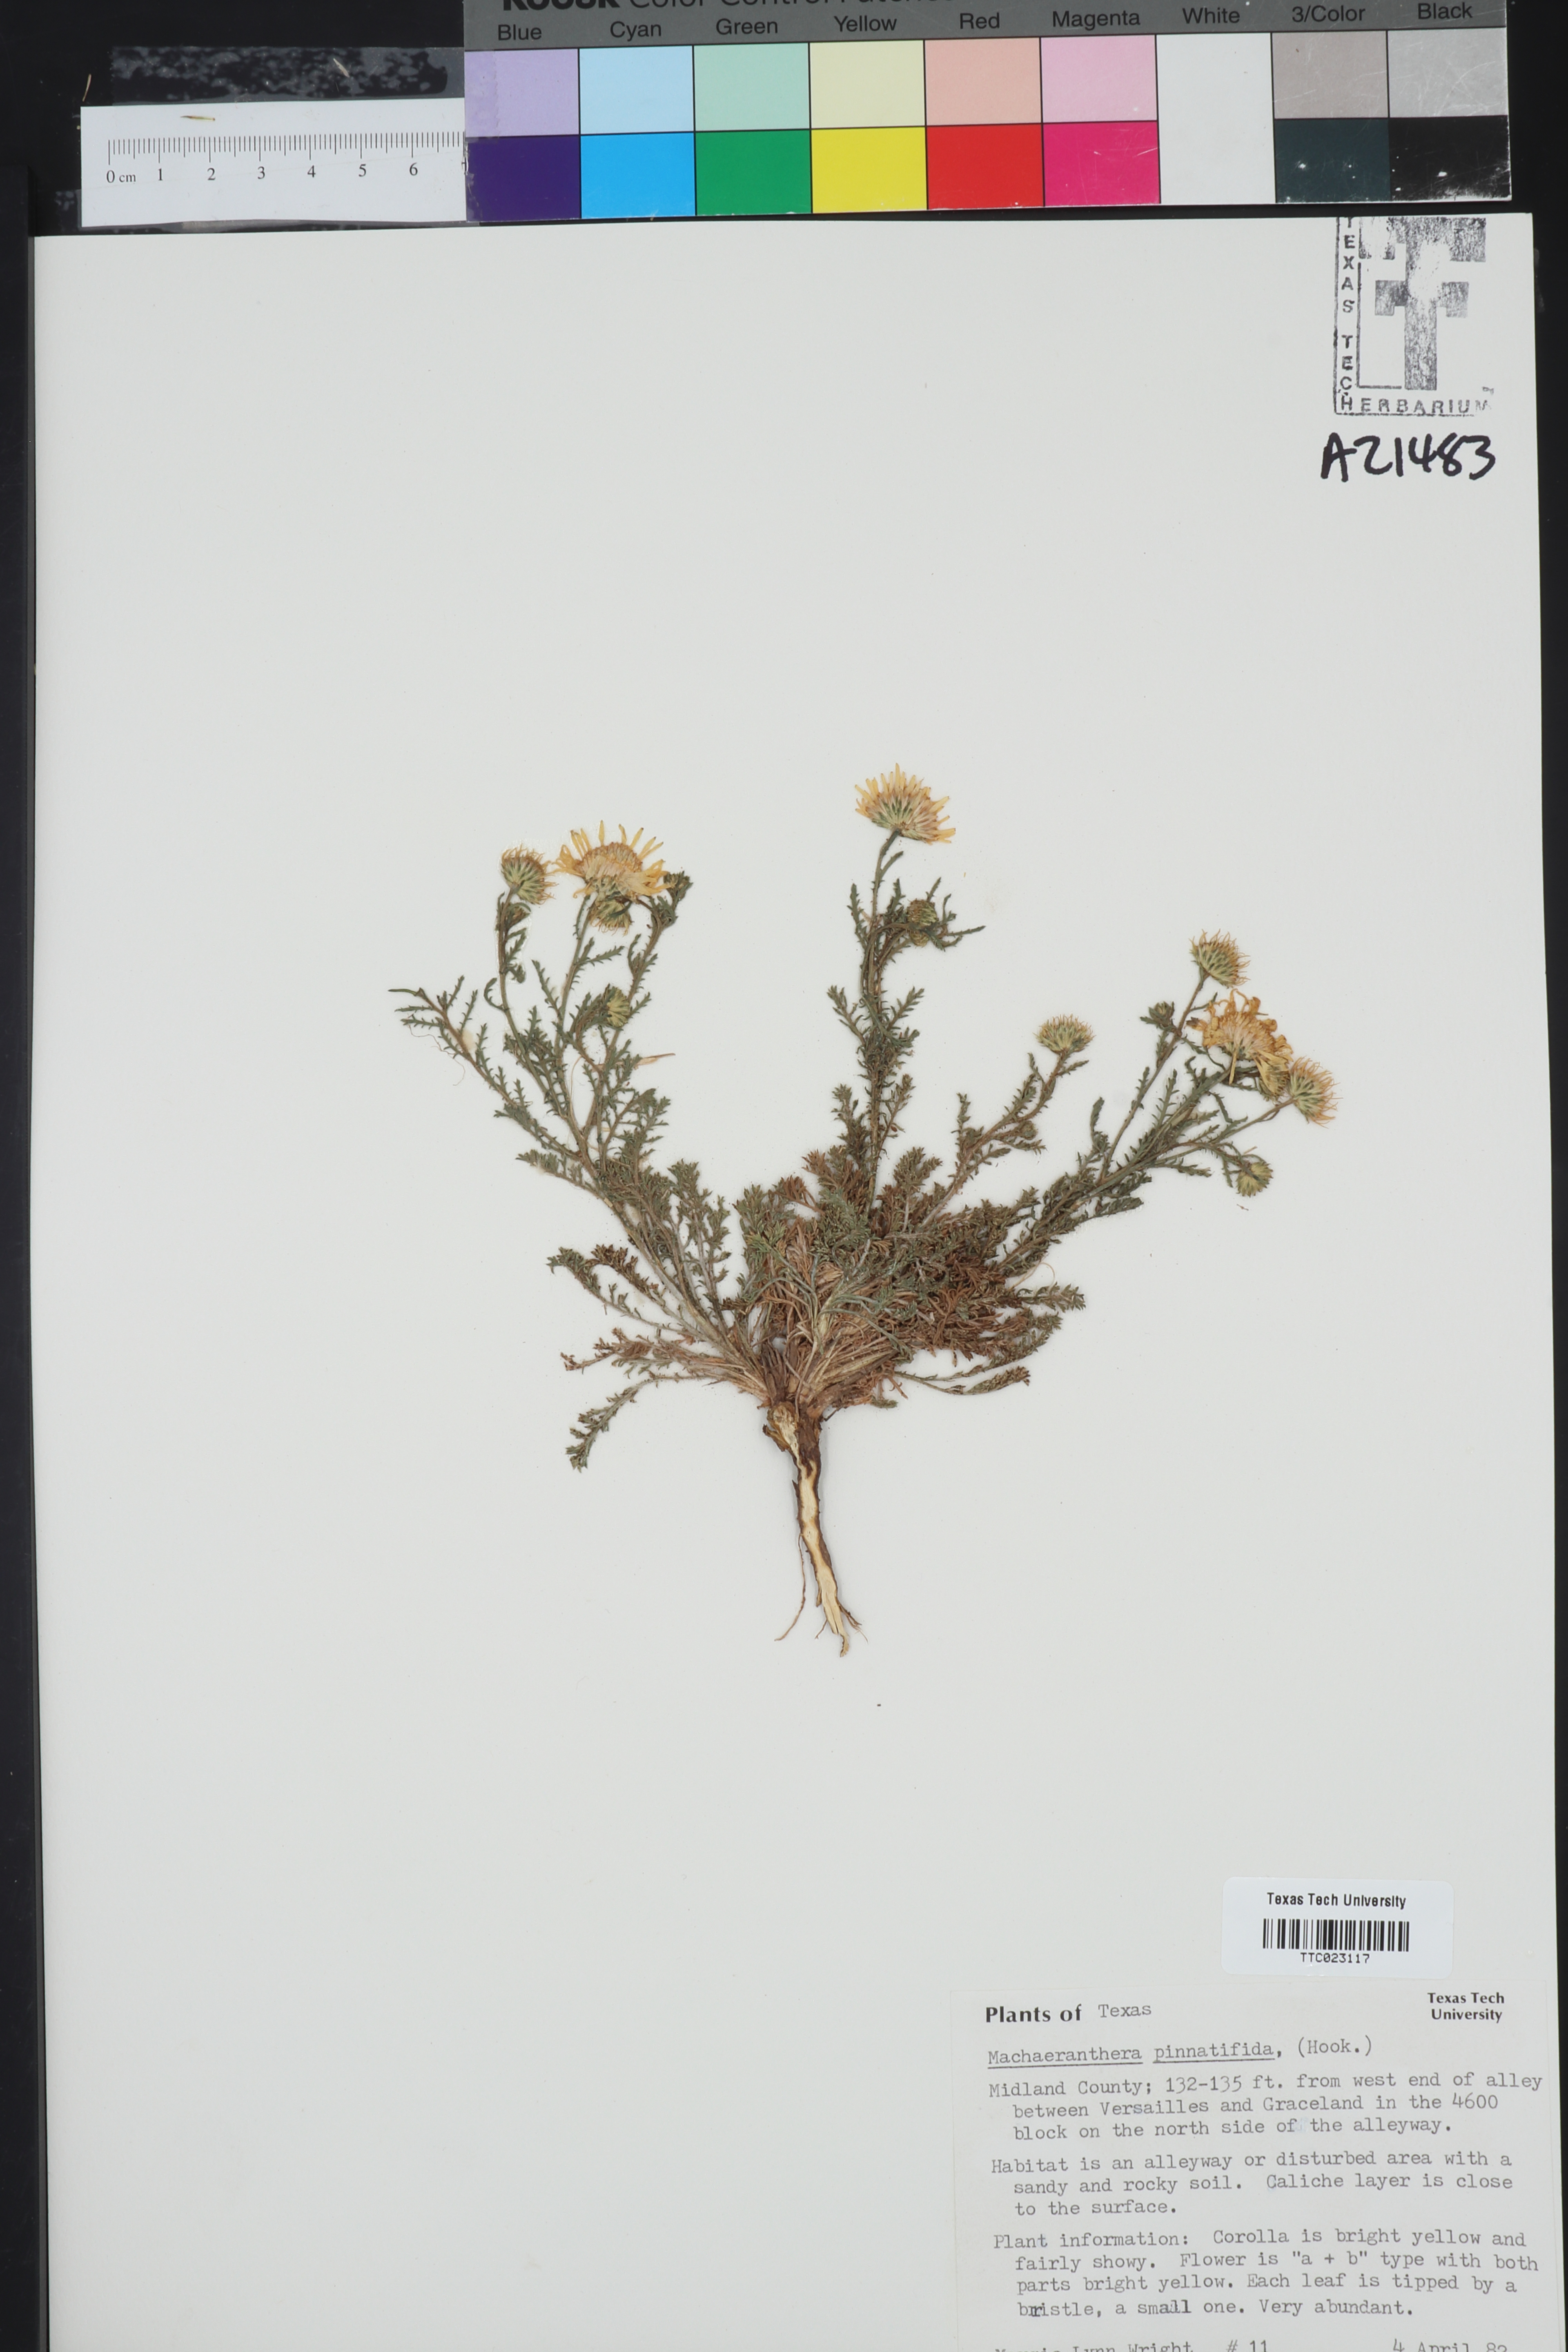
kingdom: Plantae
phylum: Tracheophyta
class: Magnoliopsida
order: Asterales
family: Asteraceae
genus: Xanthisma
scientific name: Xanthisma spinulosum
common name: Spiny goldenweed
